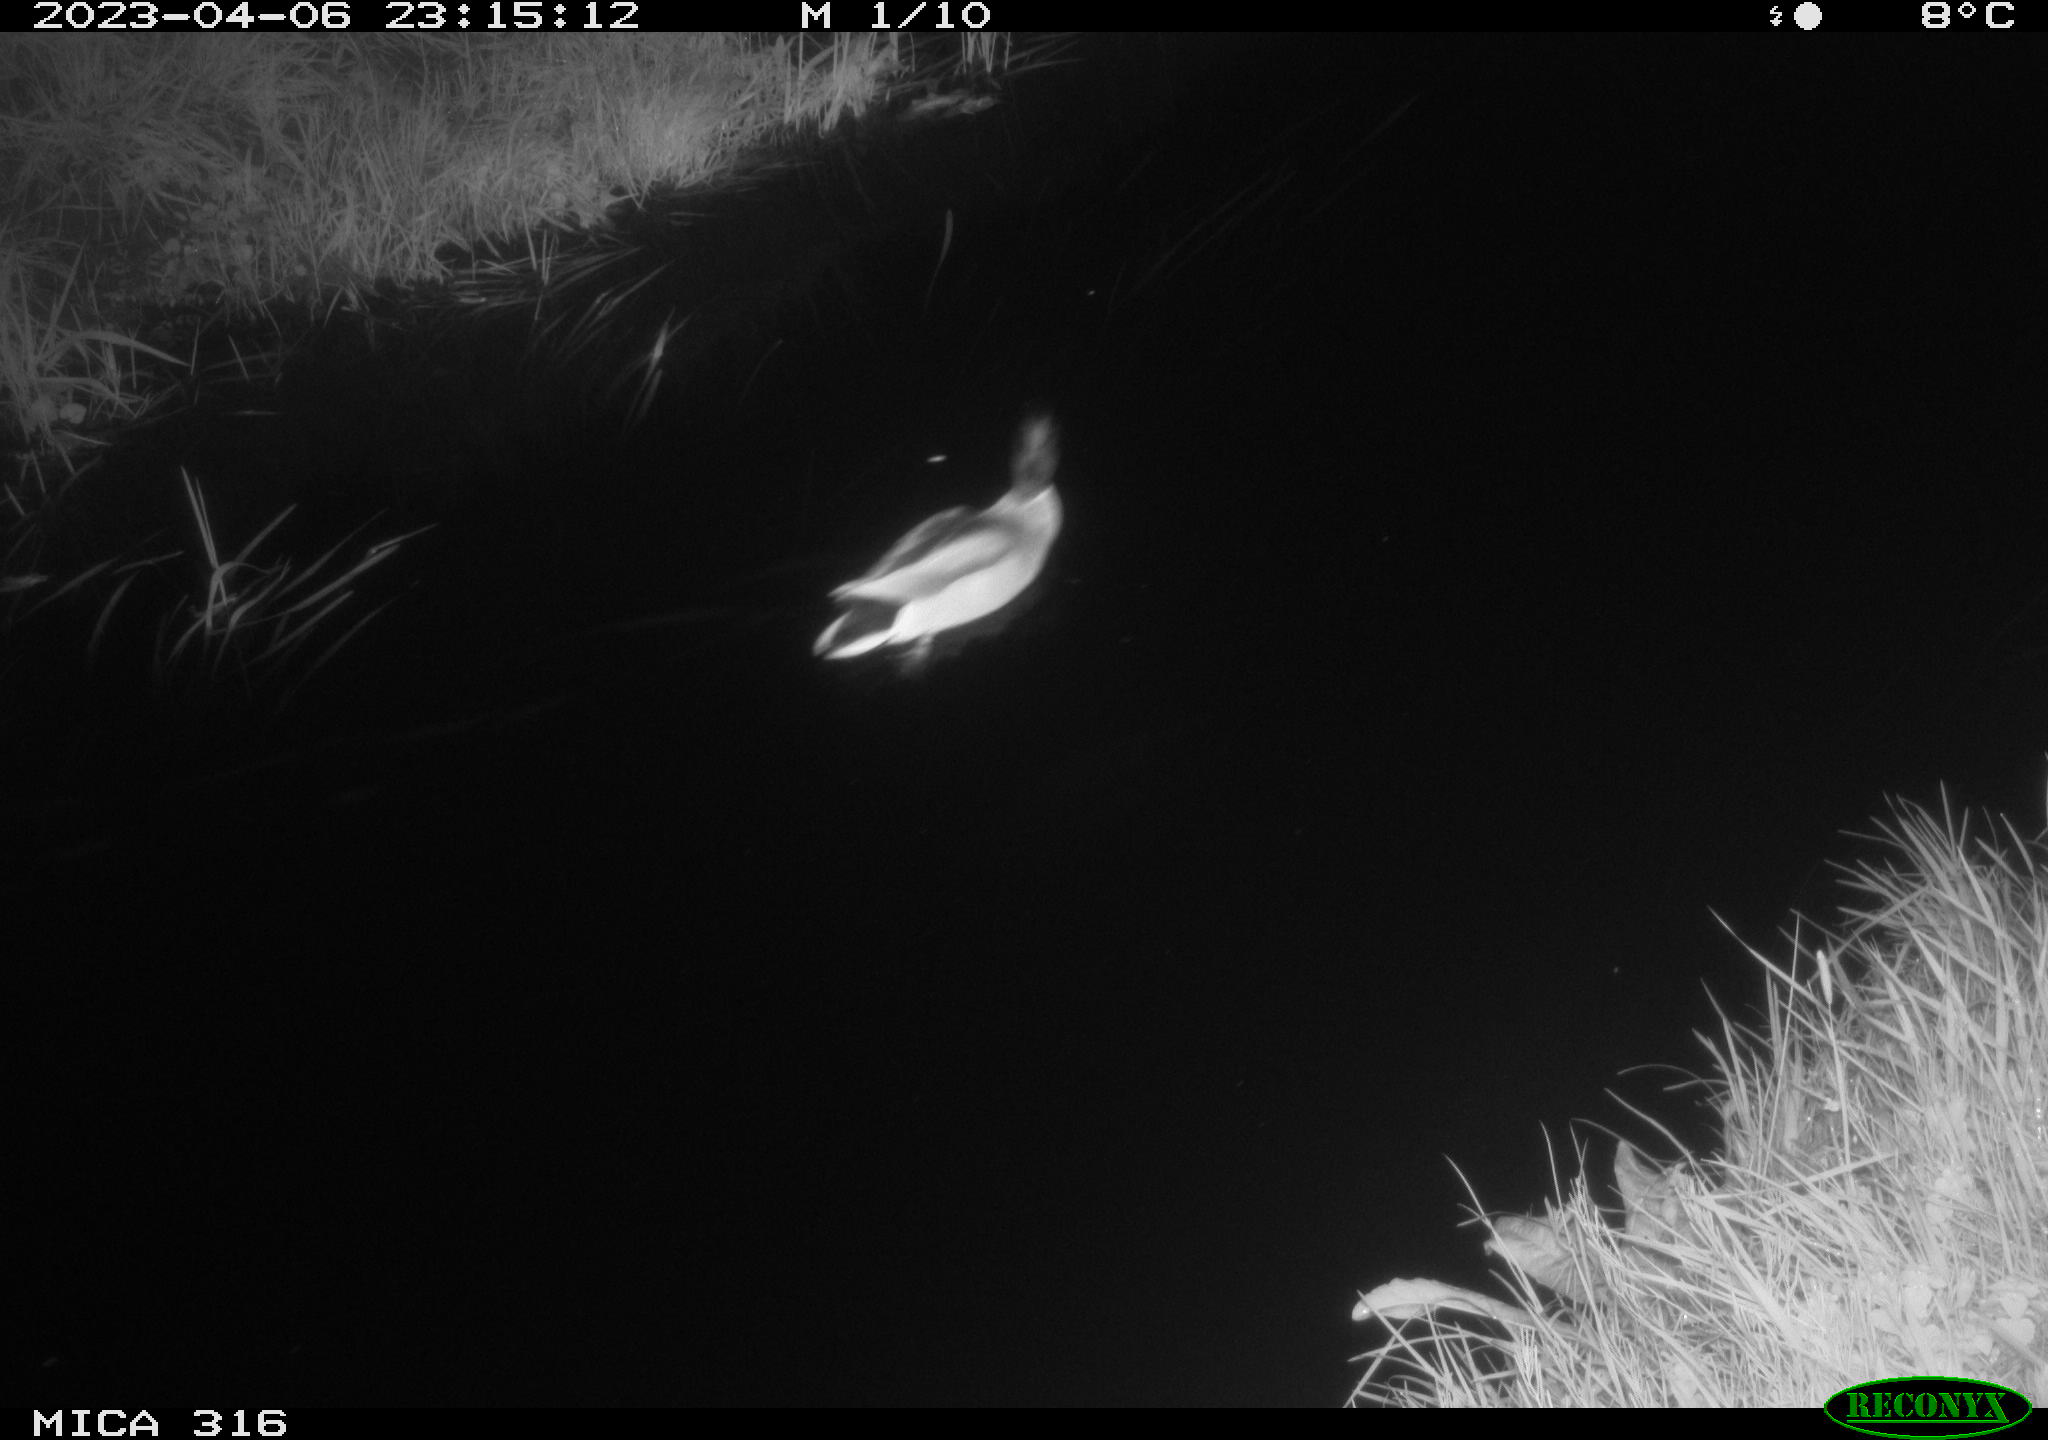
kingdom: Animalia
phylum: Chordata
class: Aves
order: Anseriformes
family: Anatidae
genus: Anas
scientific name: Anas
